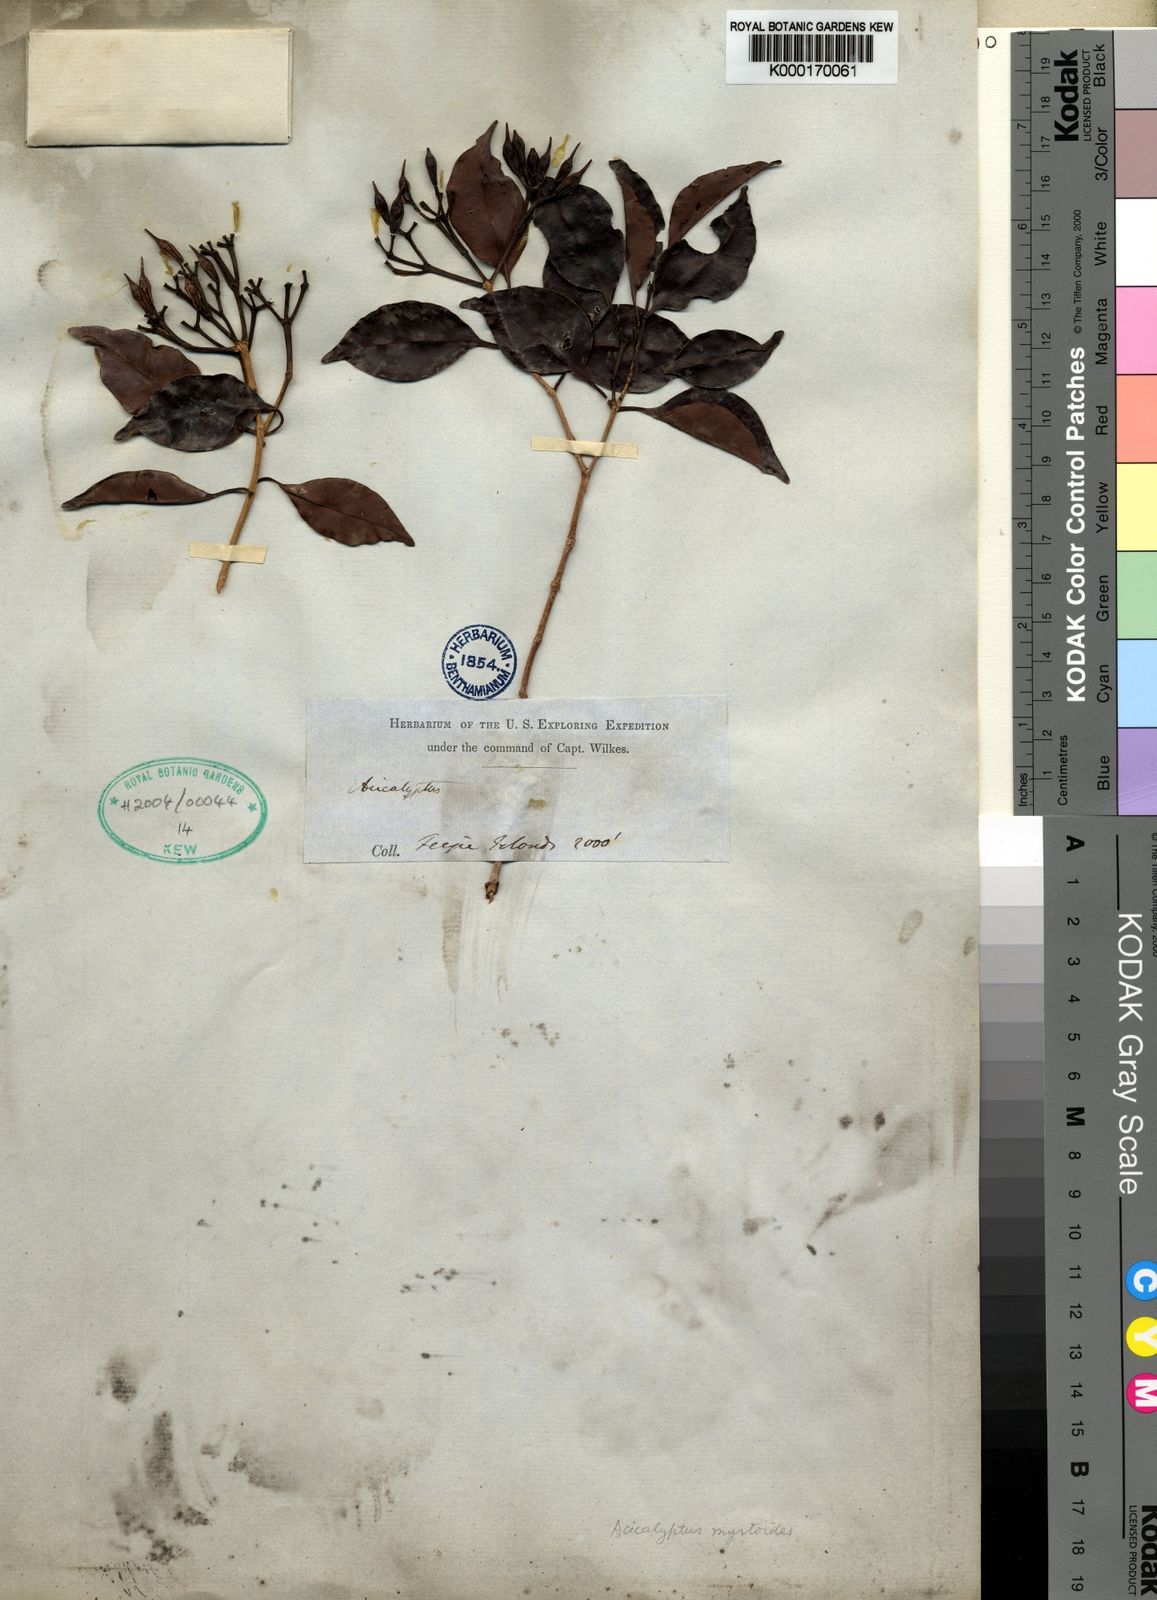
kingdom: Plantae
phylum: Tracheophyta
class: Magnoliopsida
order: Myrtales
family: Myrtaceae
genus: Syzygium
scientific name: Syzygium myrtoides
